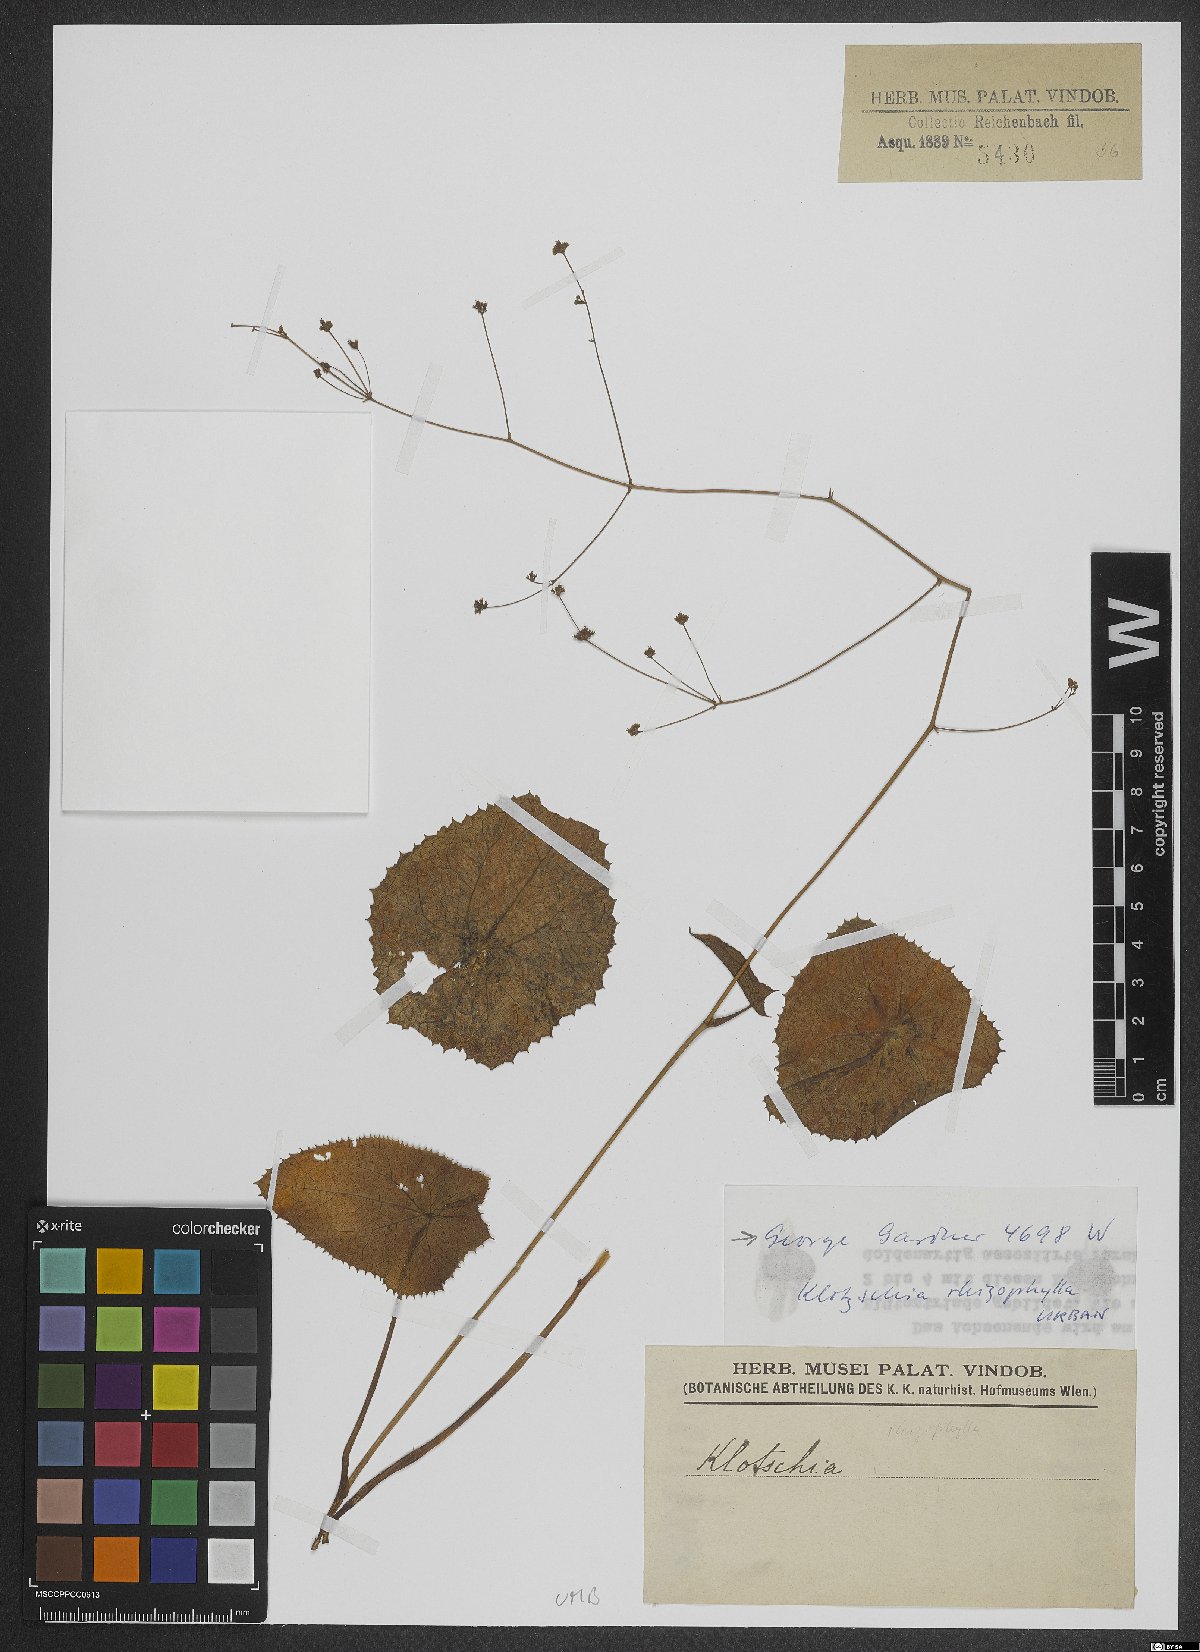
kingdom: Plantae
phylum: Tracheophyta
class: Magnoliopsida
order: Apiales
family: Apiaceae
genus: Klotzschia
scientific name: Klotzschia rhizophylla
